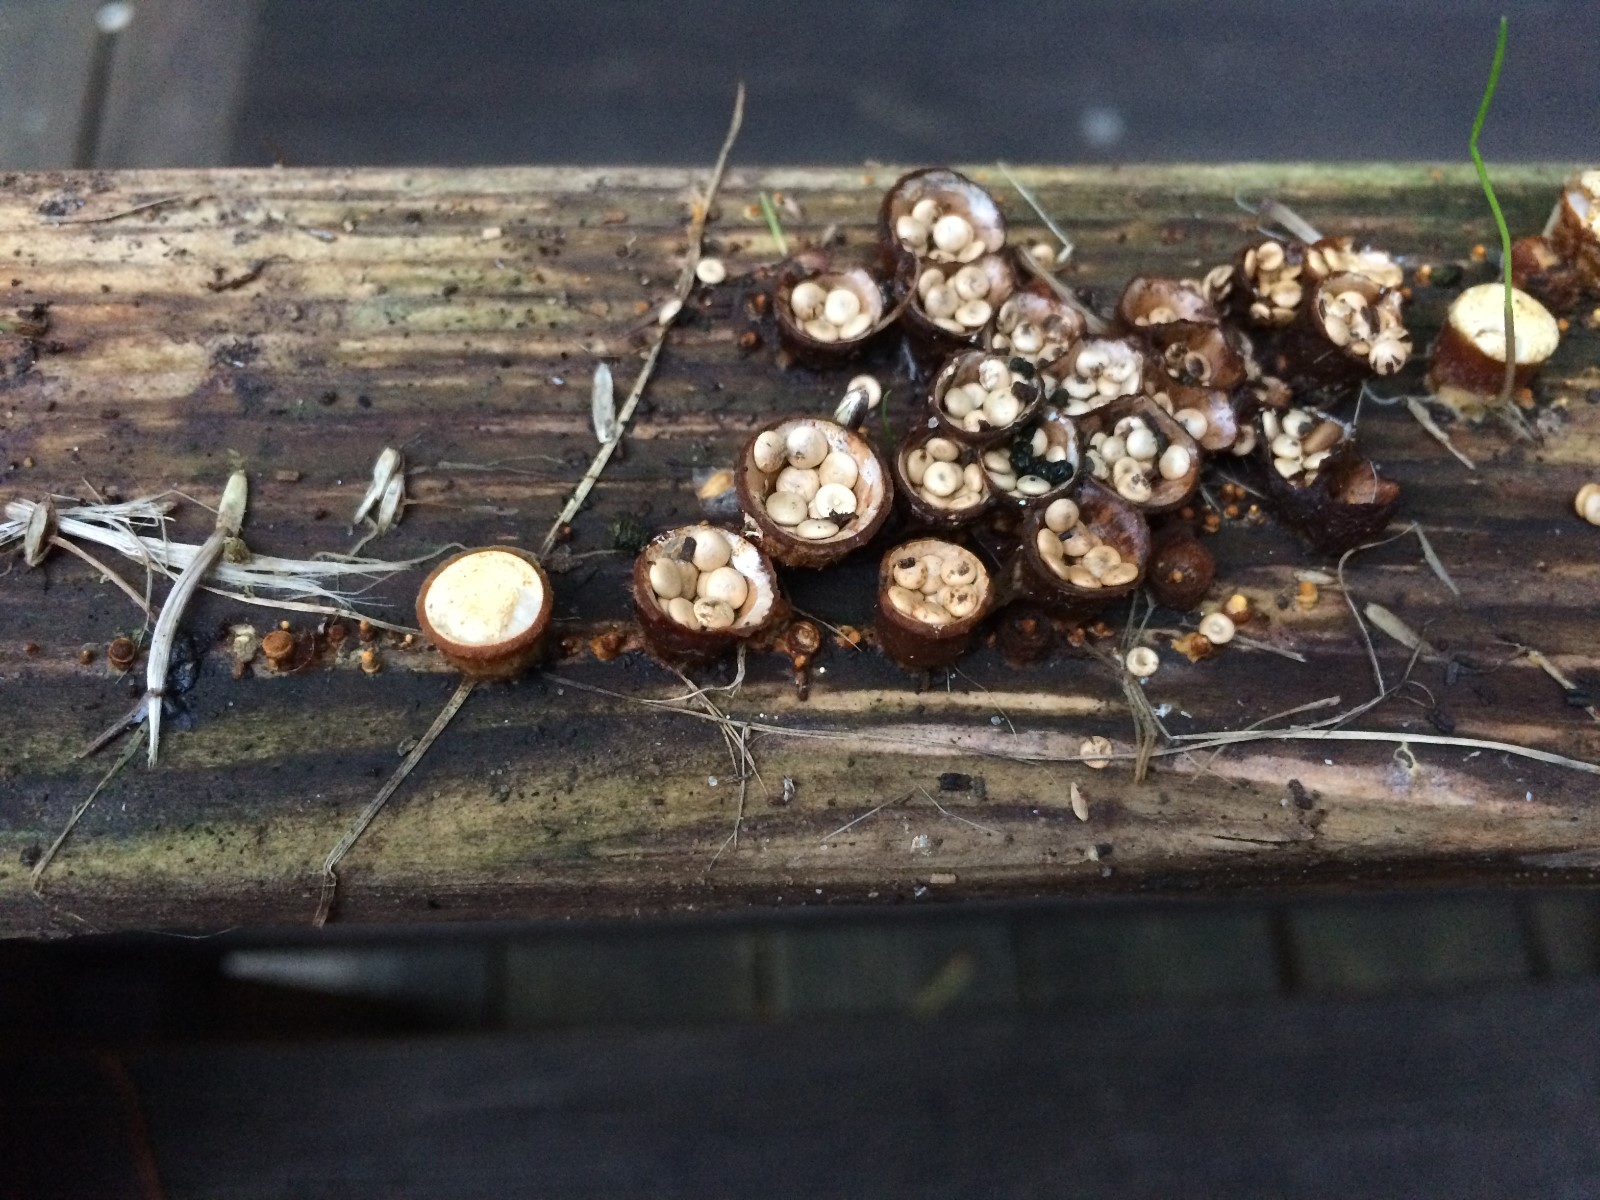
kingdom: Fungi
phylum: Basidiomycota
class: Agaricomycetes
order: Agaricales
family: Nidulariaceae
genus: Crucibulum
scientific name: Crucibulum
